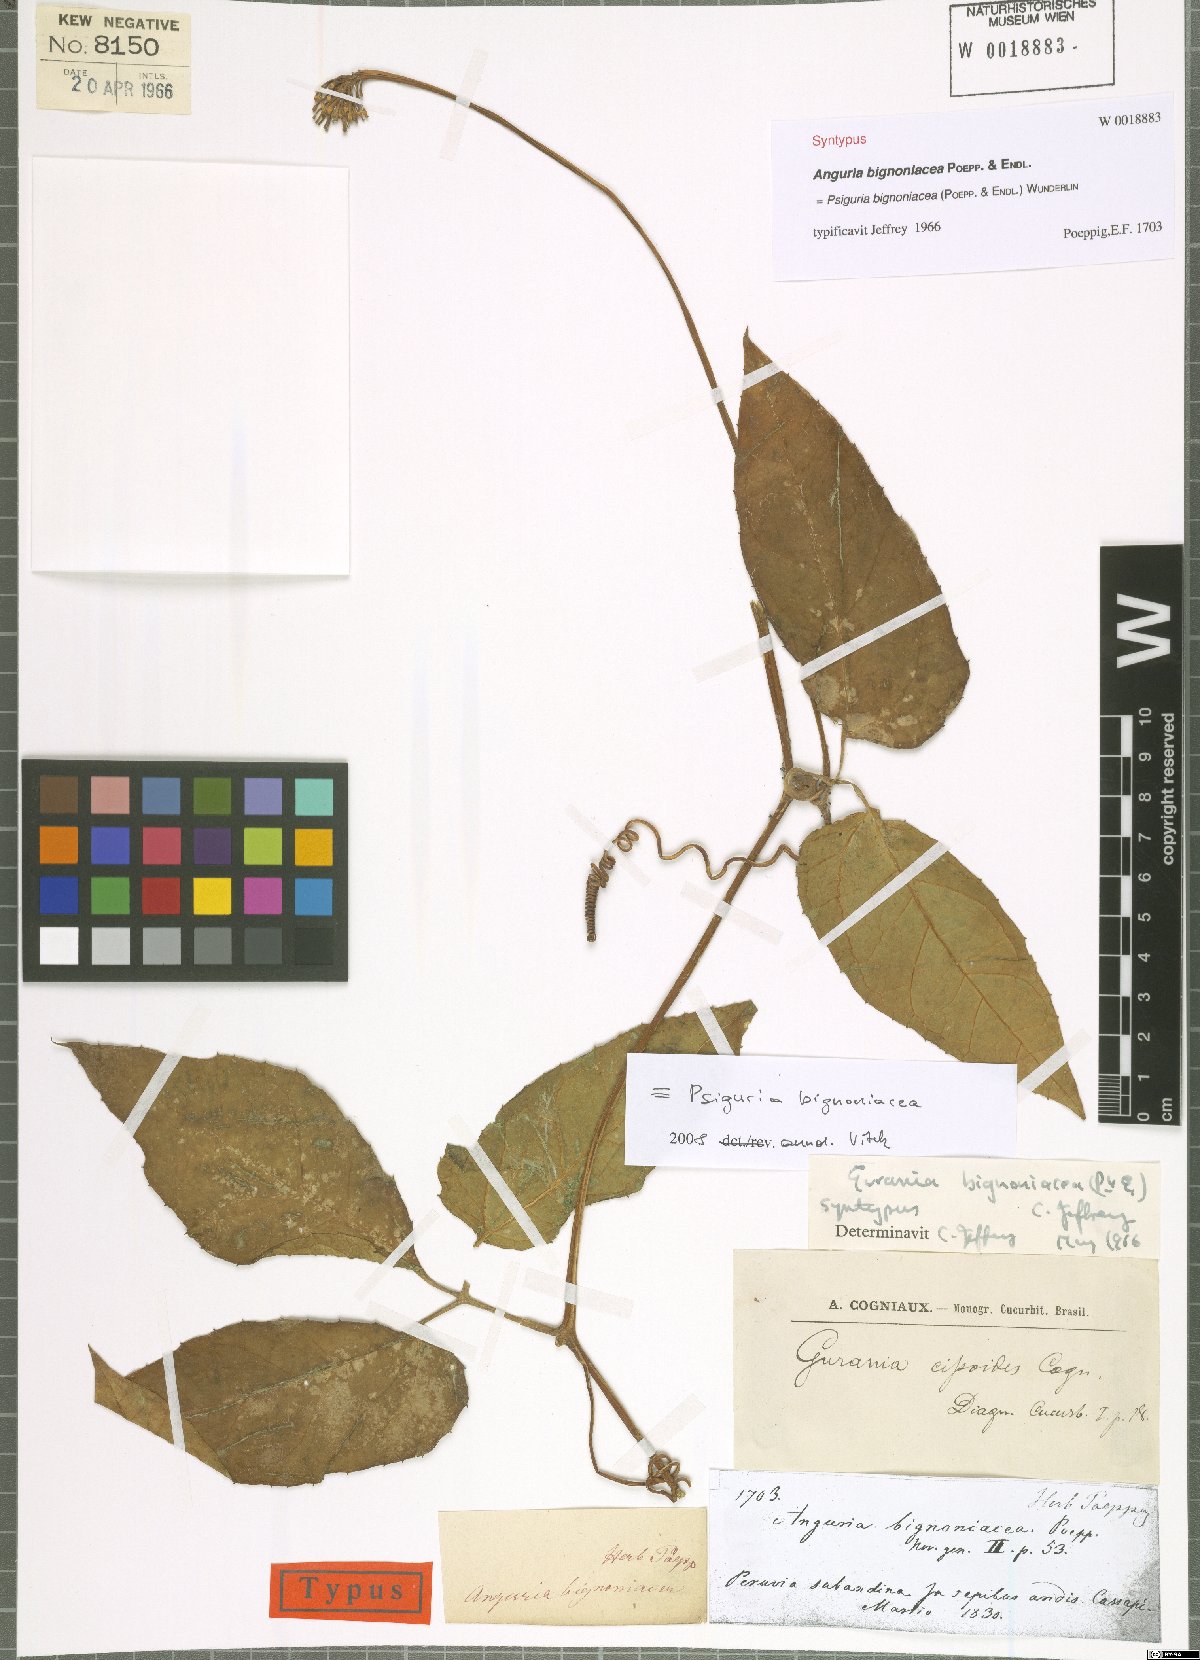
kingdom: Plantae
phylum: Tracheophyta
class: Magnoliopsida
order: Cucurbitales
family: Cucurbitaceae
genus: Gurania
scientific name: Gurania bignoniacea
